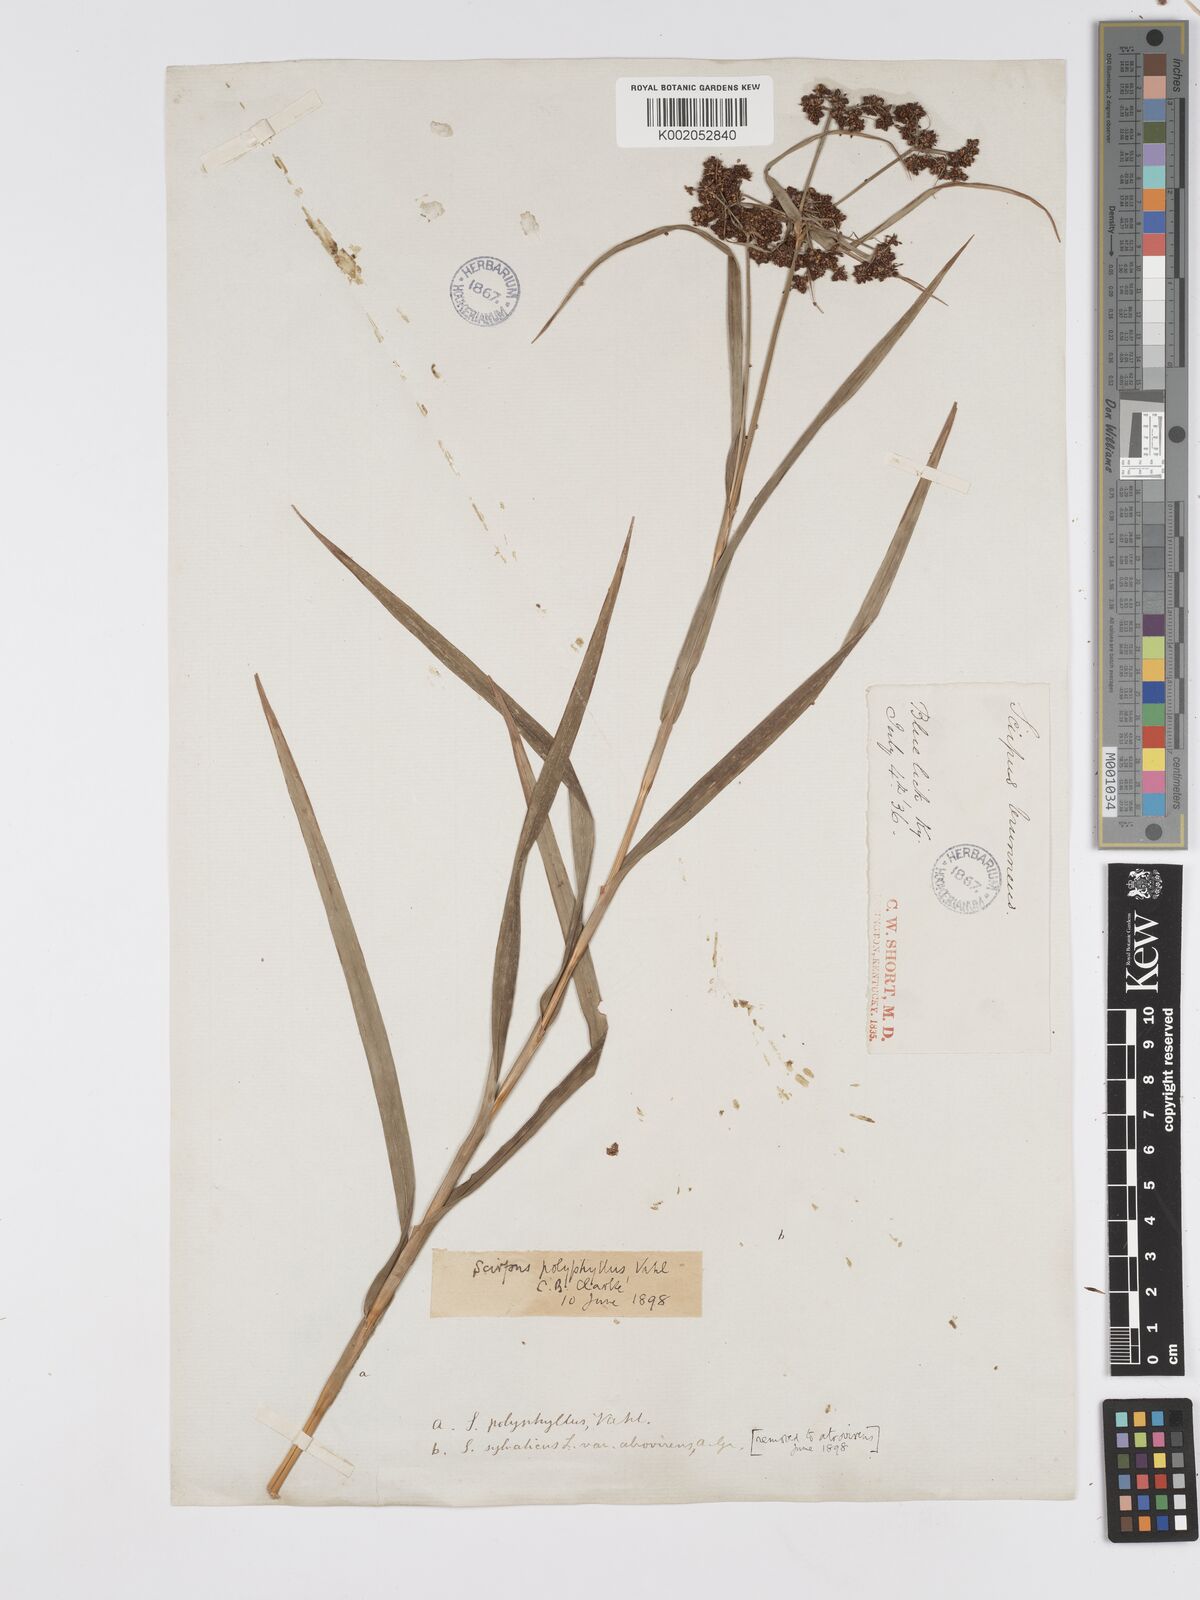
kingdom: Plantae
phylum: Tracheophyta
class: Liliopsida
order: Poales
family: Cyperaceae
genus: Scirpus
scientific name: Scirpus polyphyllus
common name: Leafy bulrush
